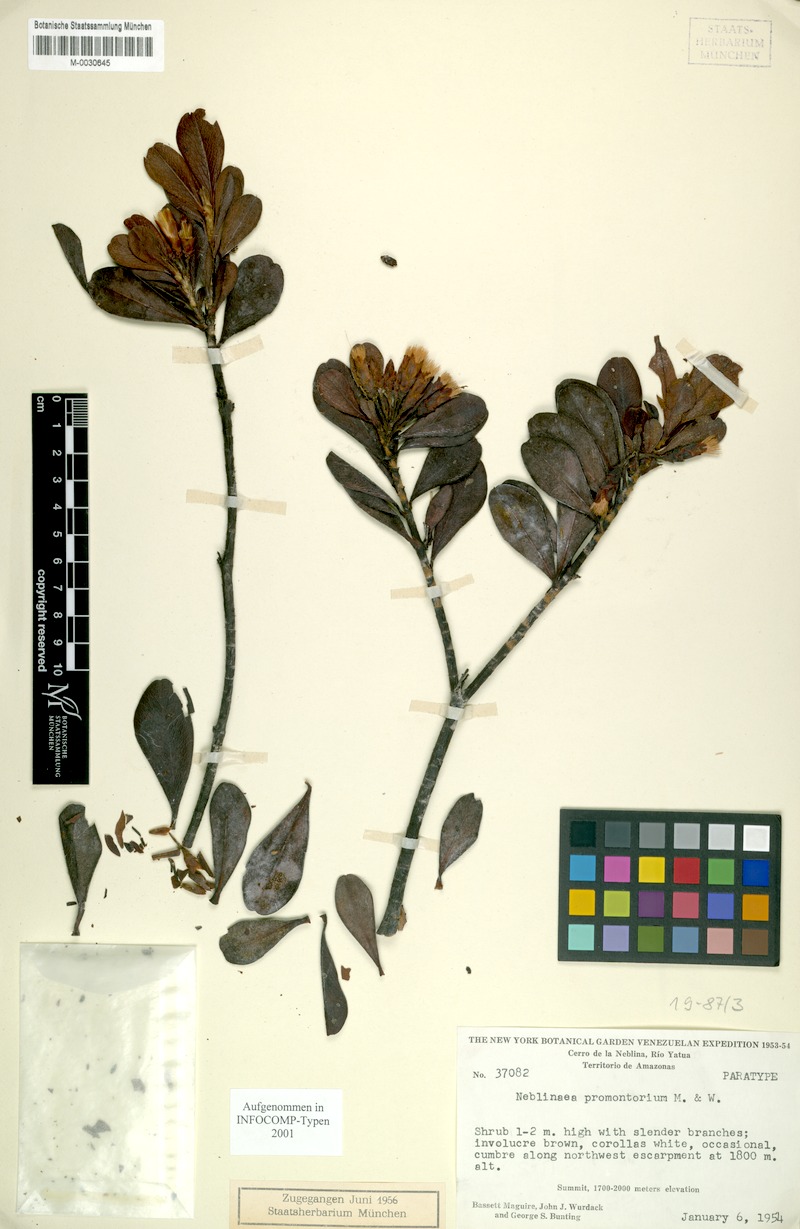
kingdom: Plantae
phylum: Tracheophyta
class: Magnoliopsida
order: Asterales
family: Asteraceae
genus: Neblinaea
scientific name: Neblinaea promontoriorum
